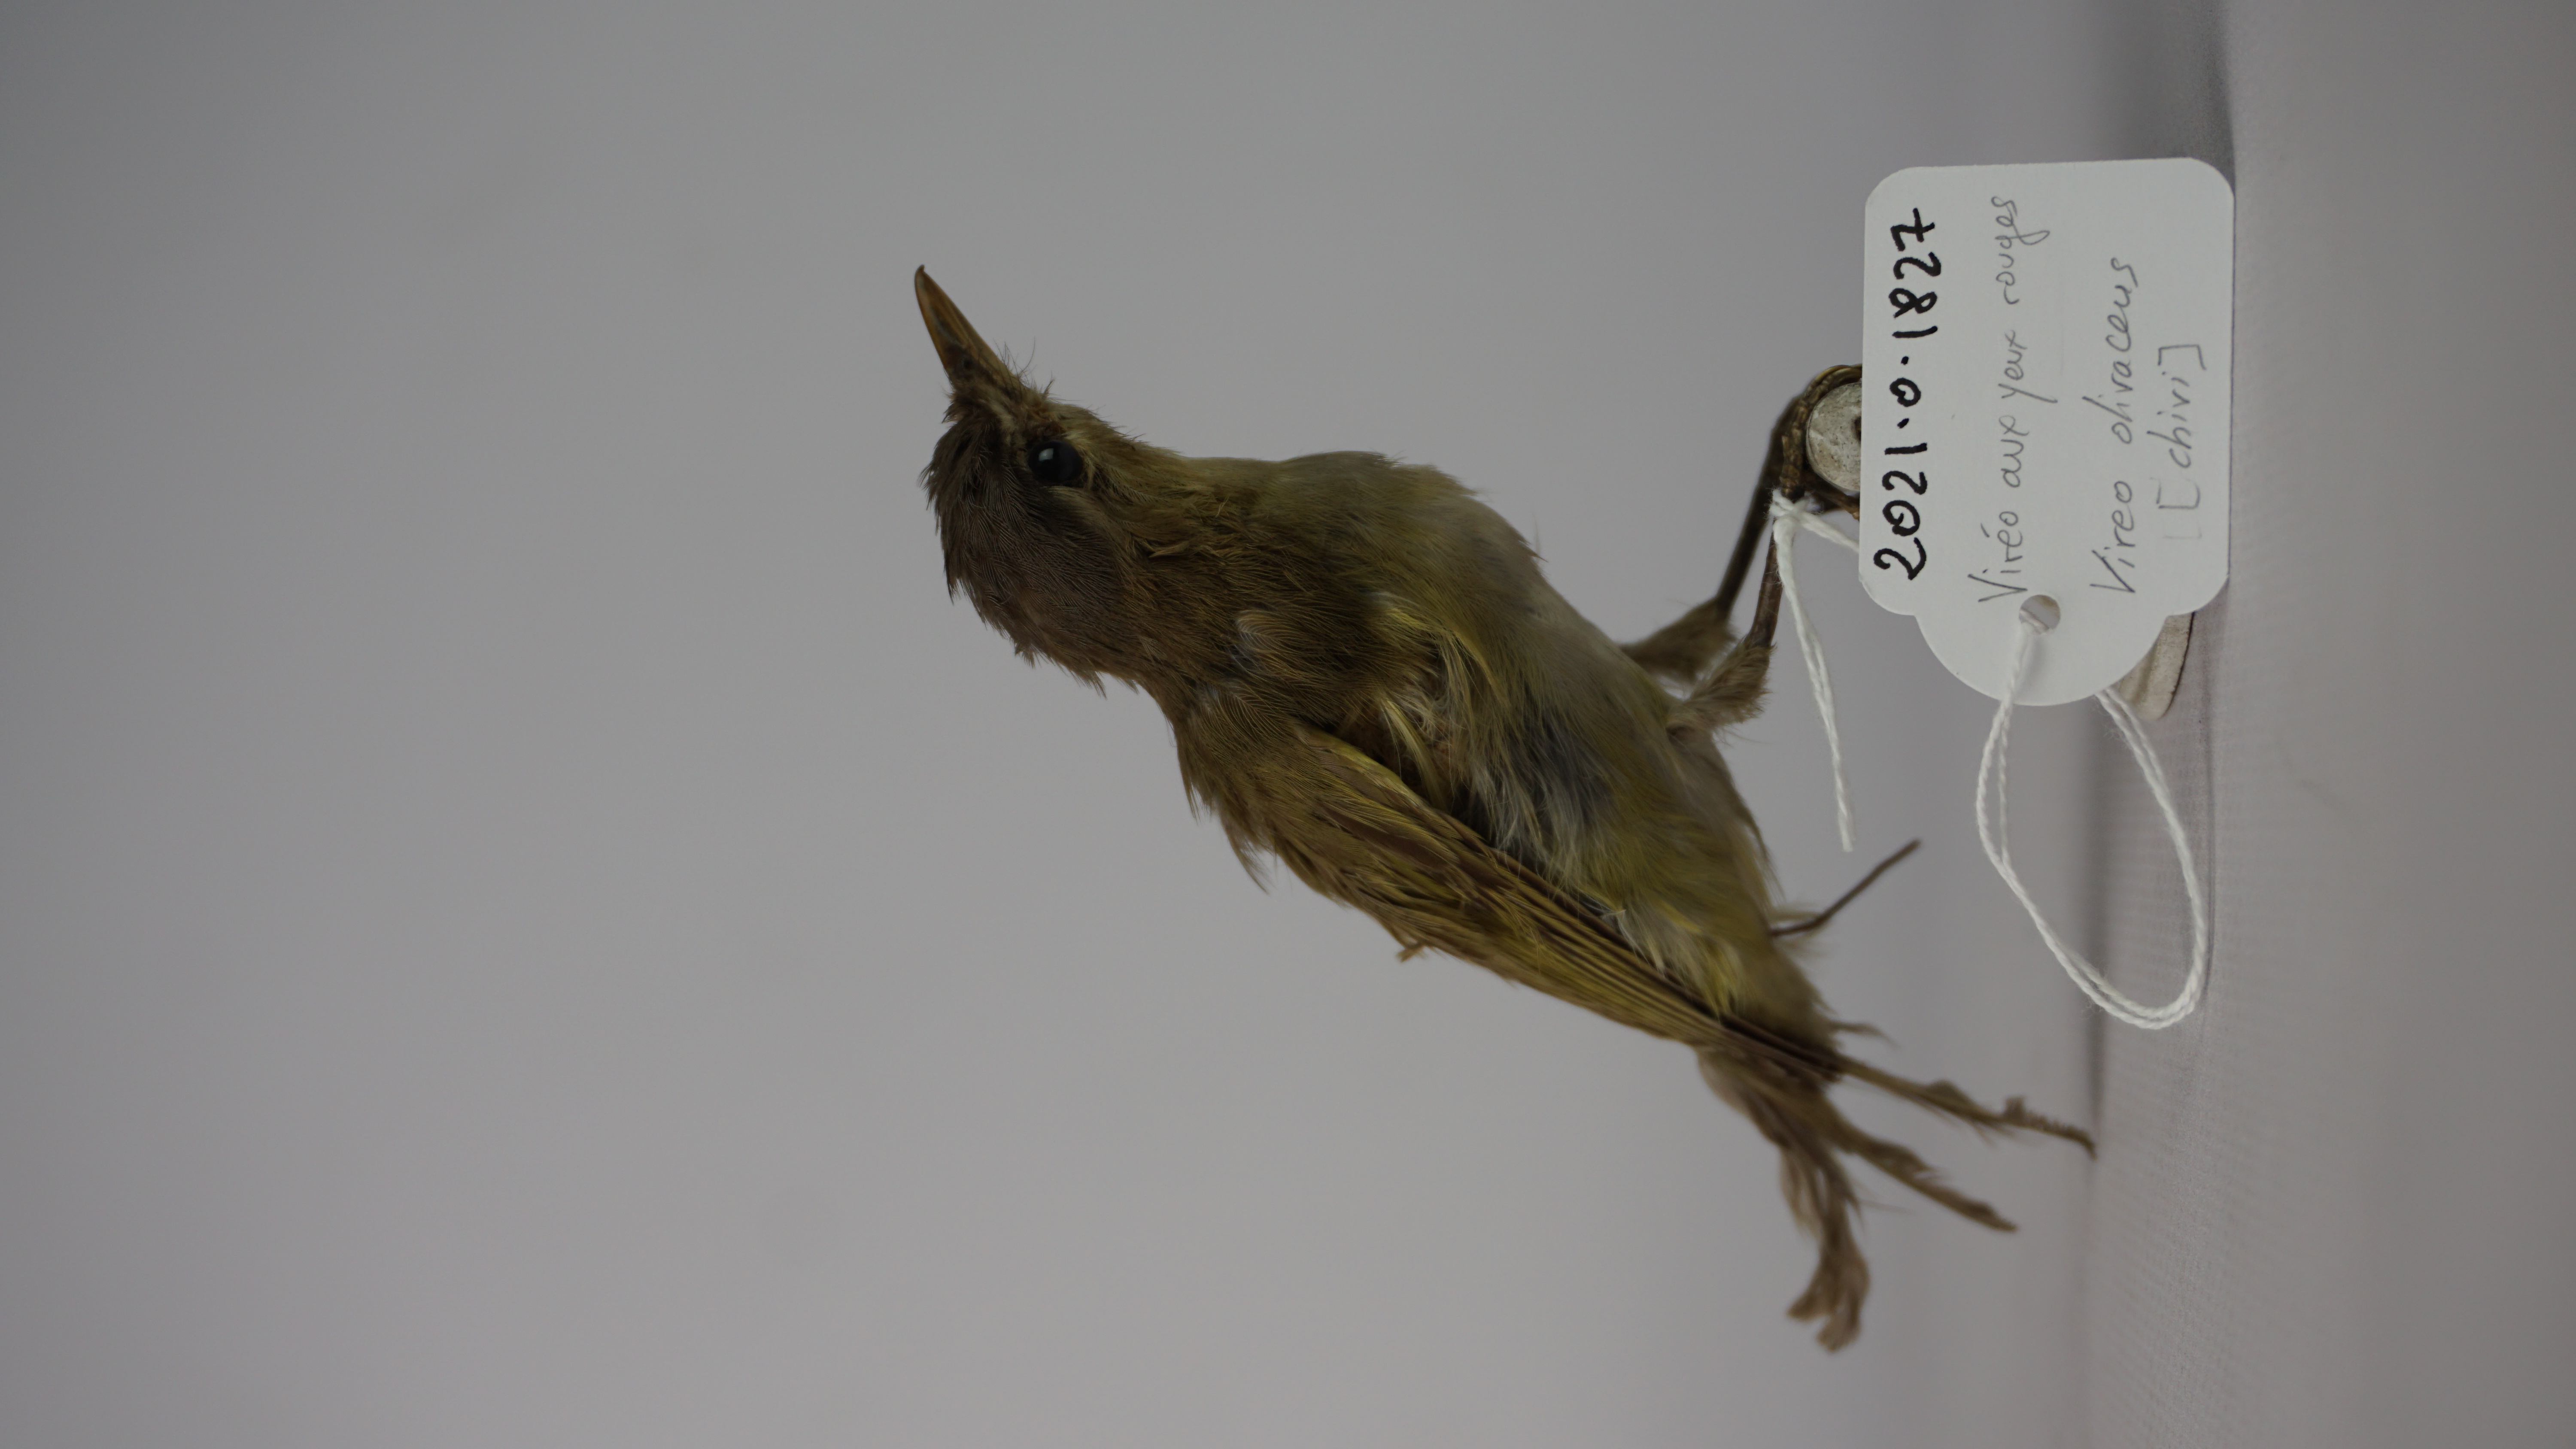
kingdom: Animalia
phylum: Chordata
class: Aves
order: Passeriformes
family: Vireonidae
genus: Vireo
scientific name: Vireo olivaceus
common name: Red-eyed vireo
